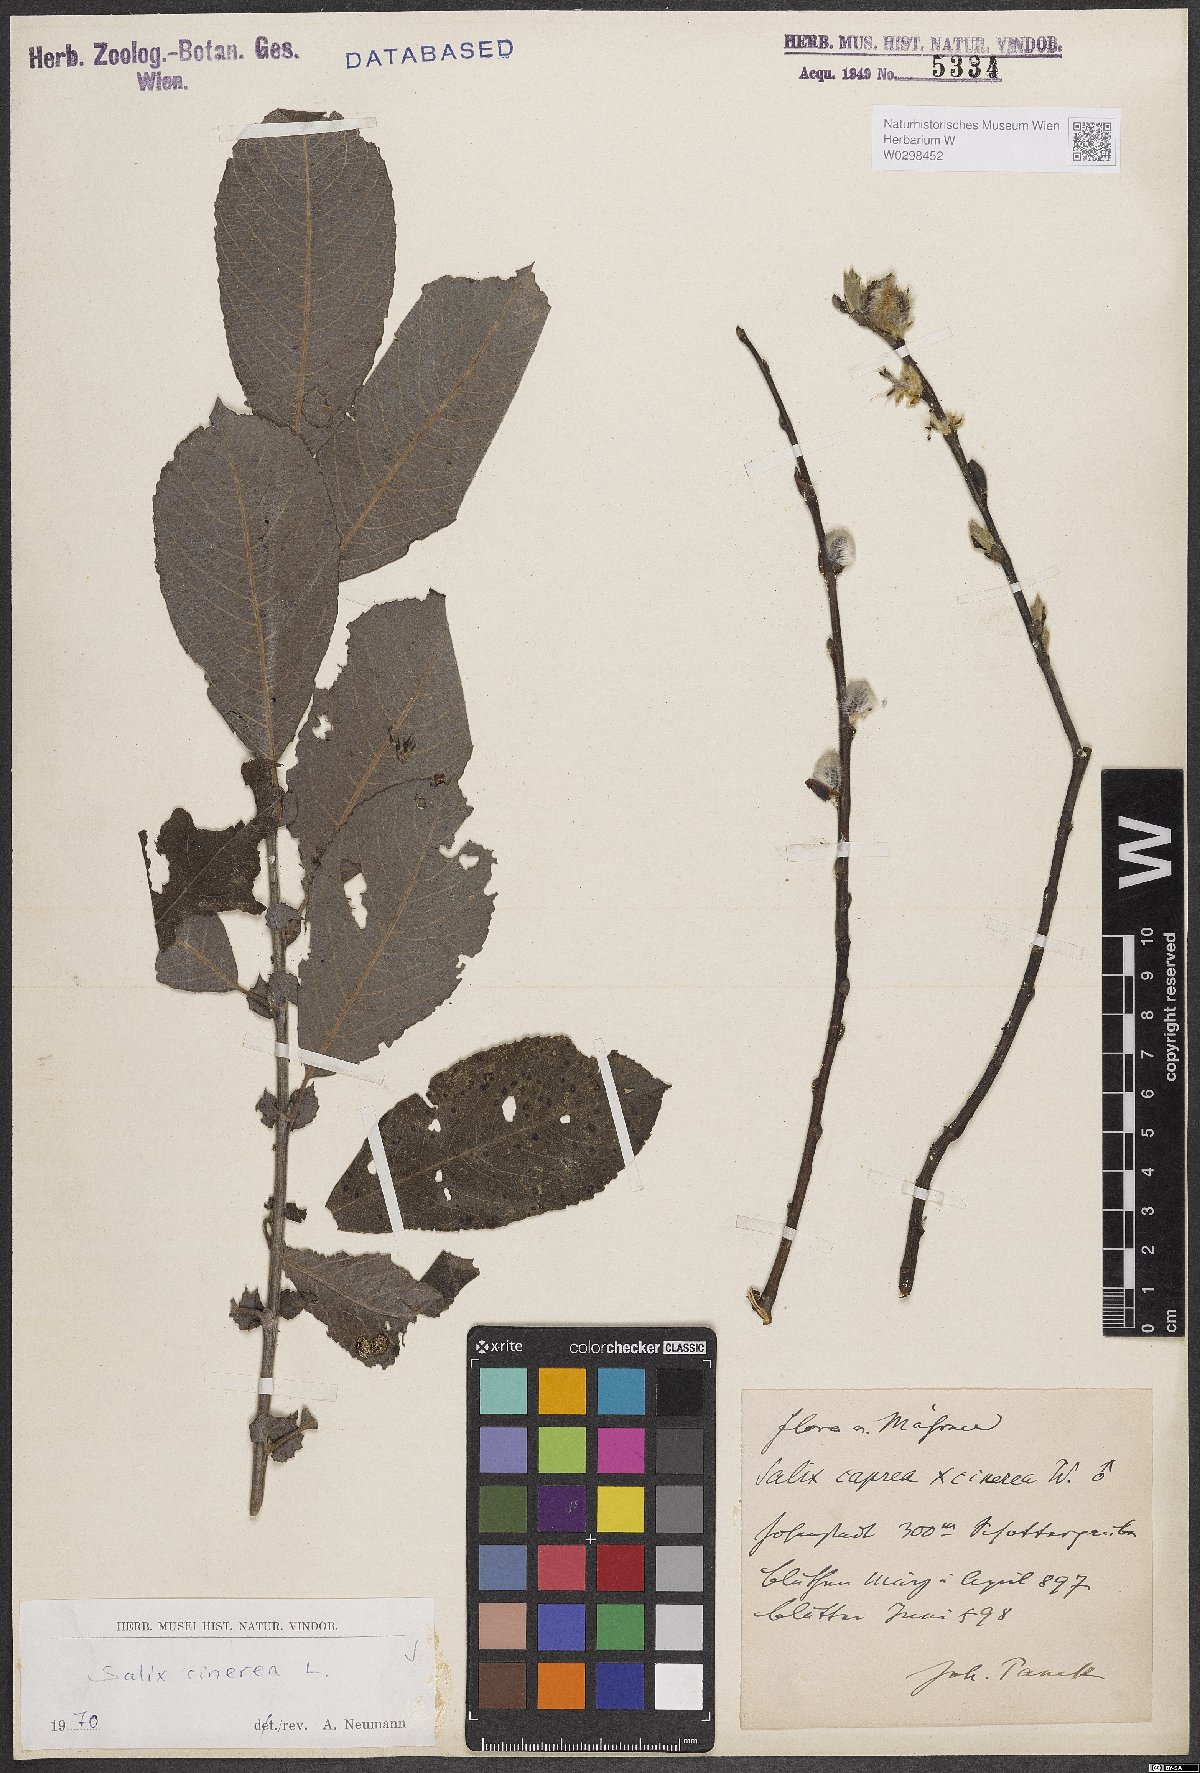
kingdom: Plantae
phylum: Tracheophyta
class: Magnoliopsida
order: Malpighiales
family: Salicaceae
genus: Salix
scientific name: Salix cinerea
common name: Common sallow
